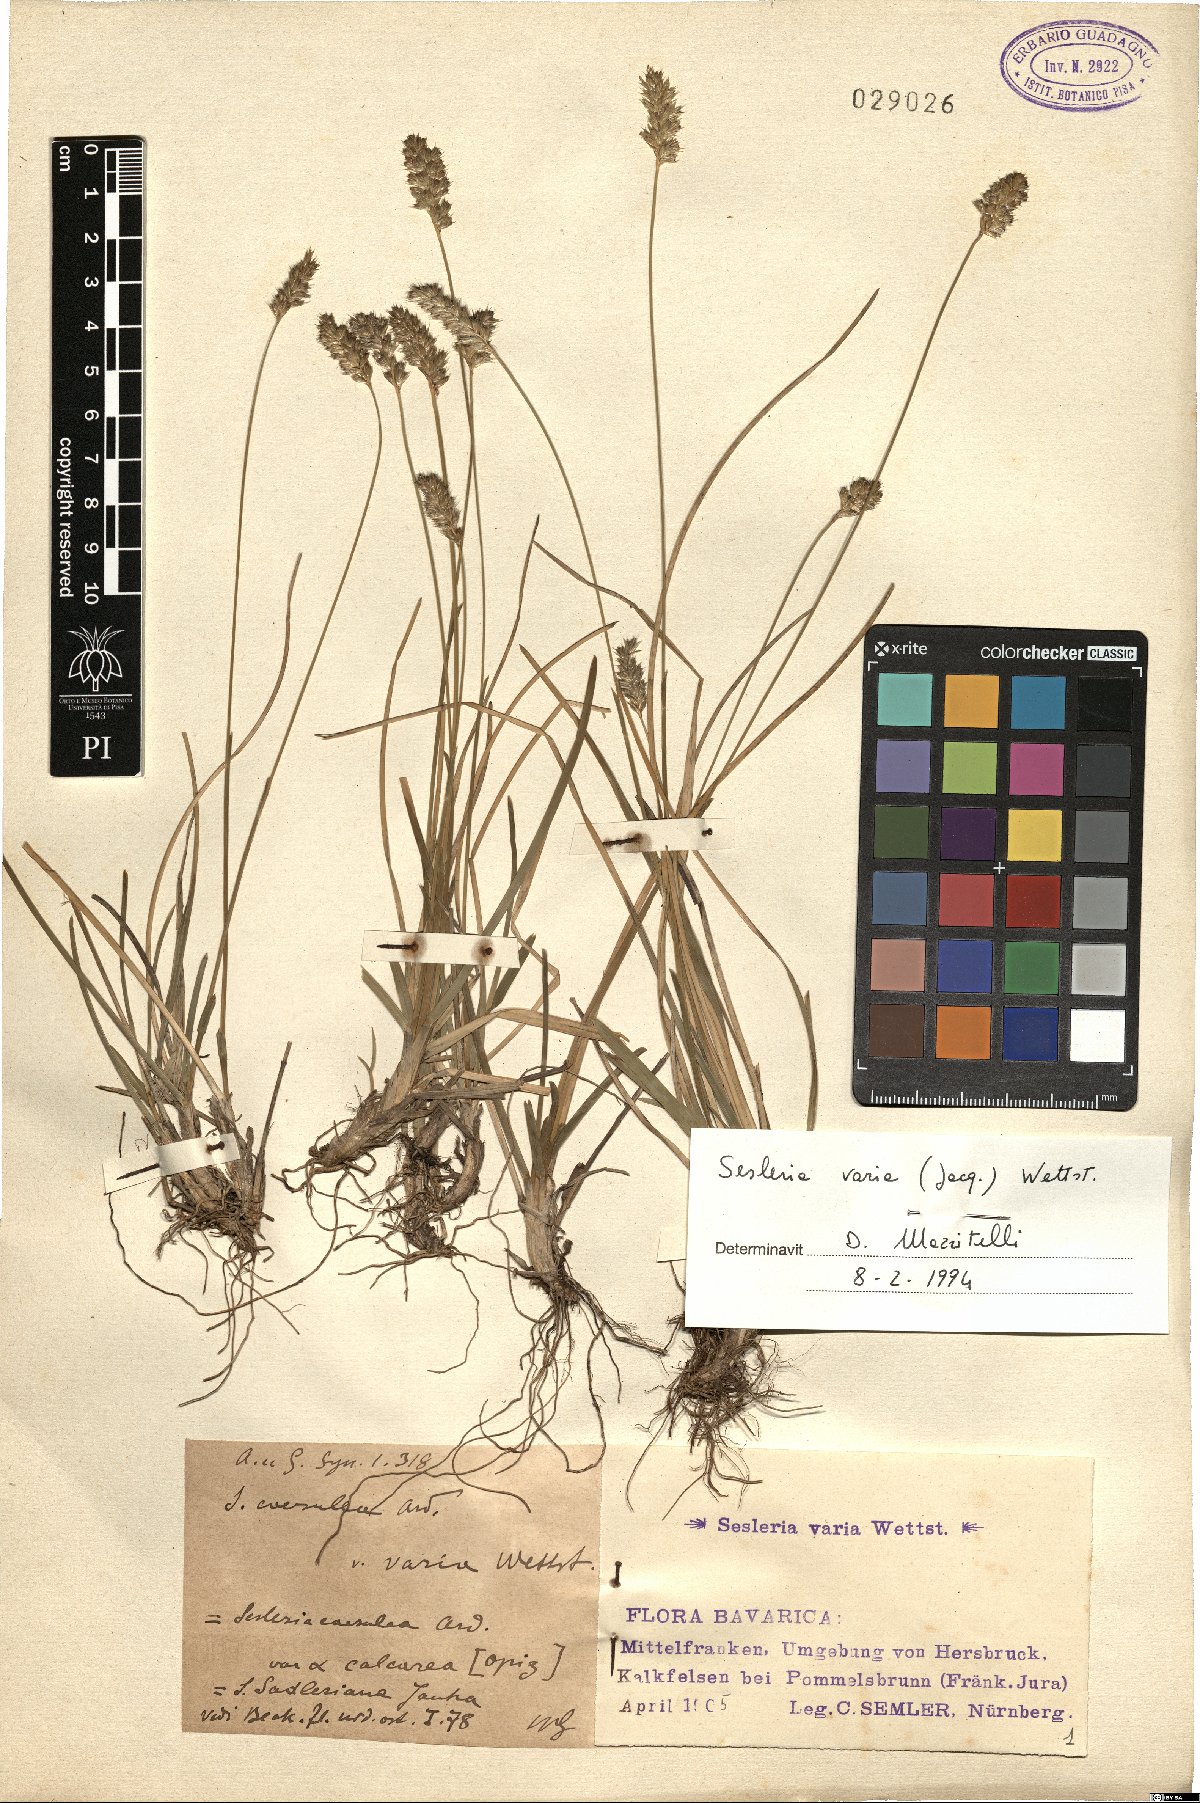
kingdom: Plantae
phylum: Tracheophyta
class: Liliopsida
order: Poales
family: Poaceae
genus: Sesleria
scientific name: Sesleria caerulea
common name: Blue moor-grass
